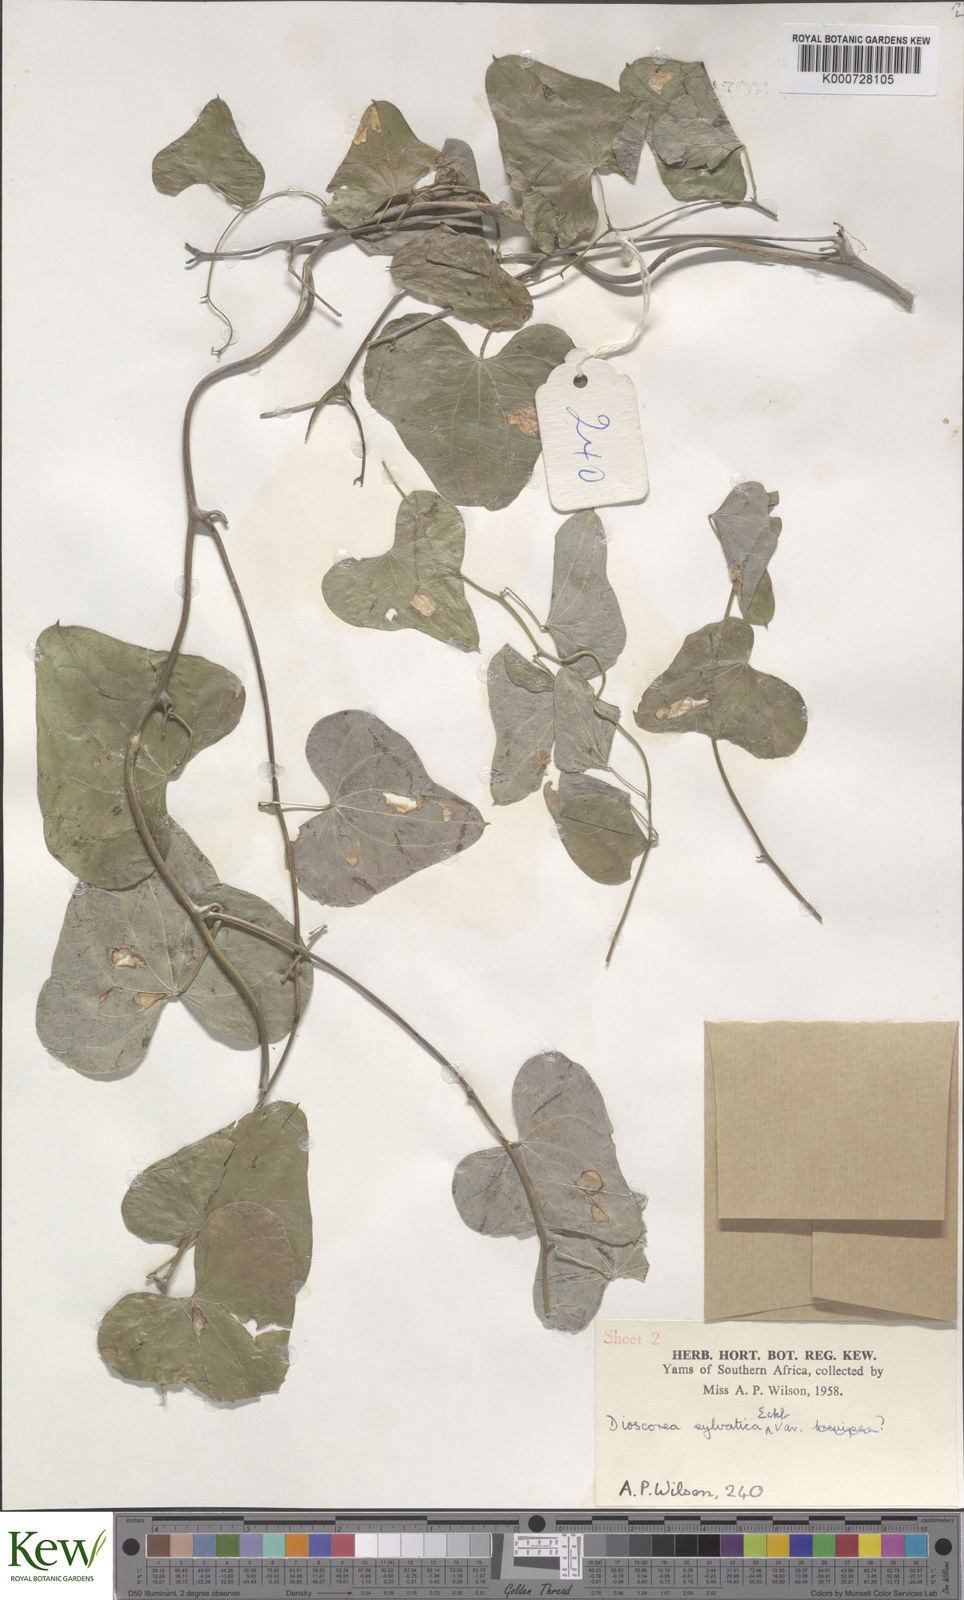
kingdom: Plantae
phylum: Tracheophyta
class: Liliopsida
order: Dioscoreales
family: Dioscoreaceae
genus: Dioscorea
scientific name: Dioscorea sylvatica
